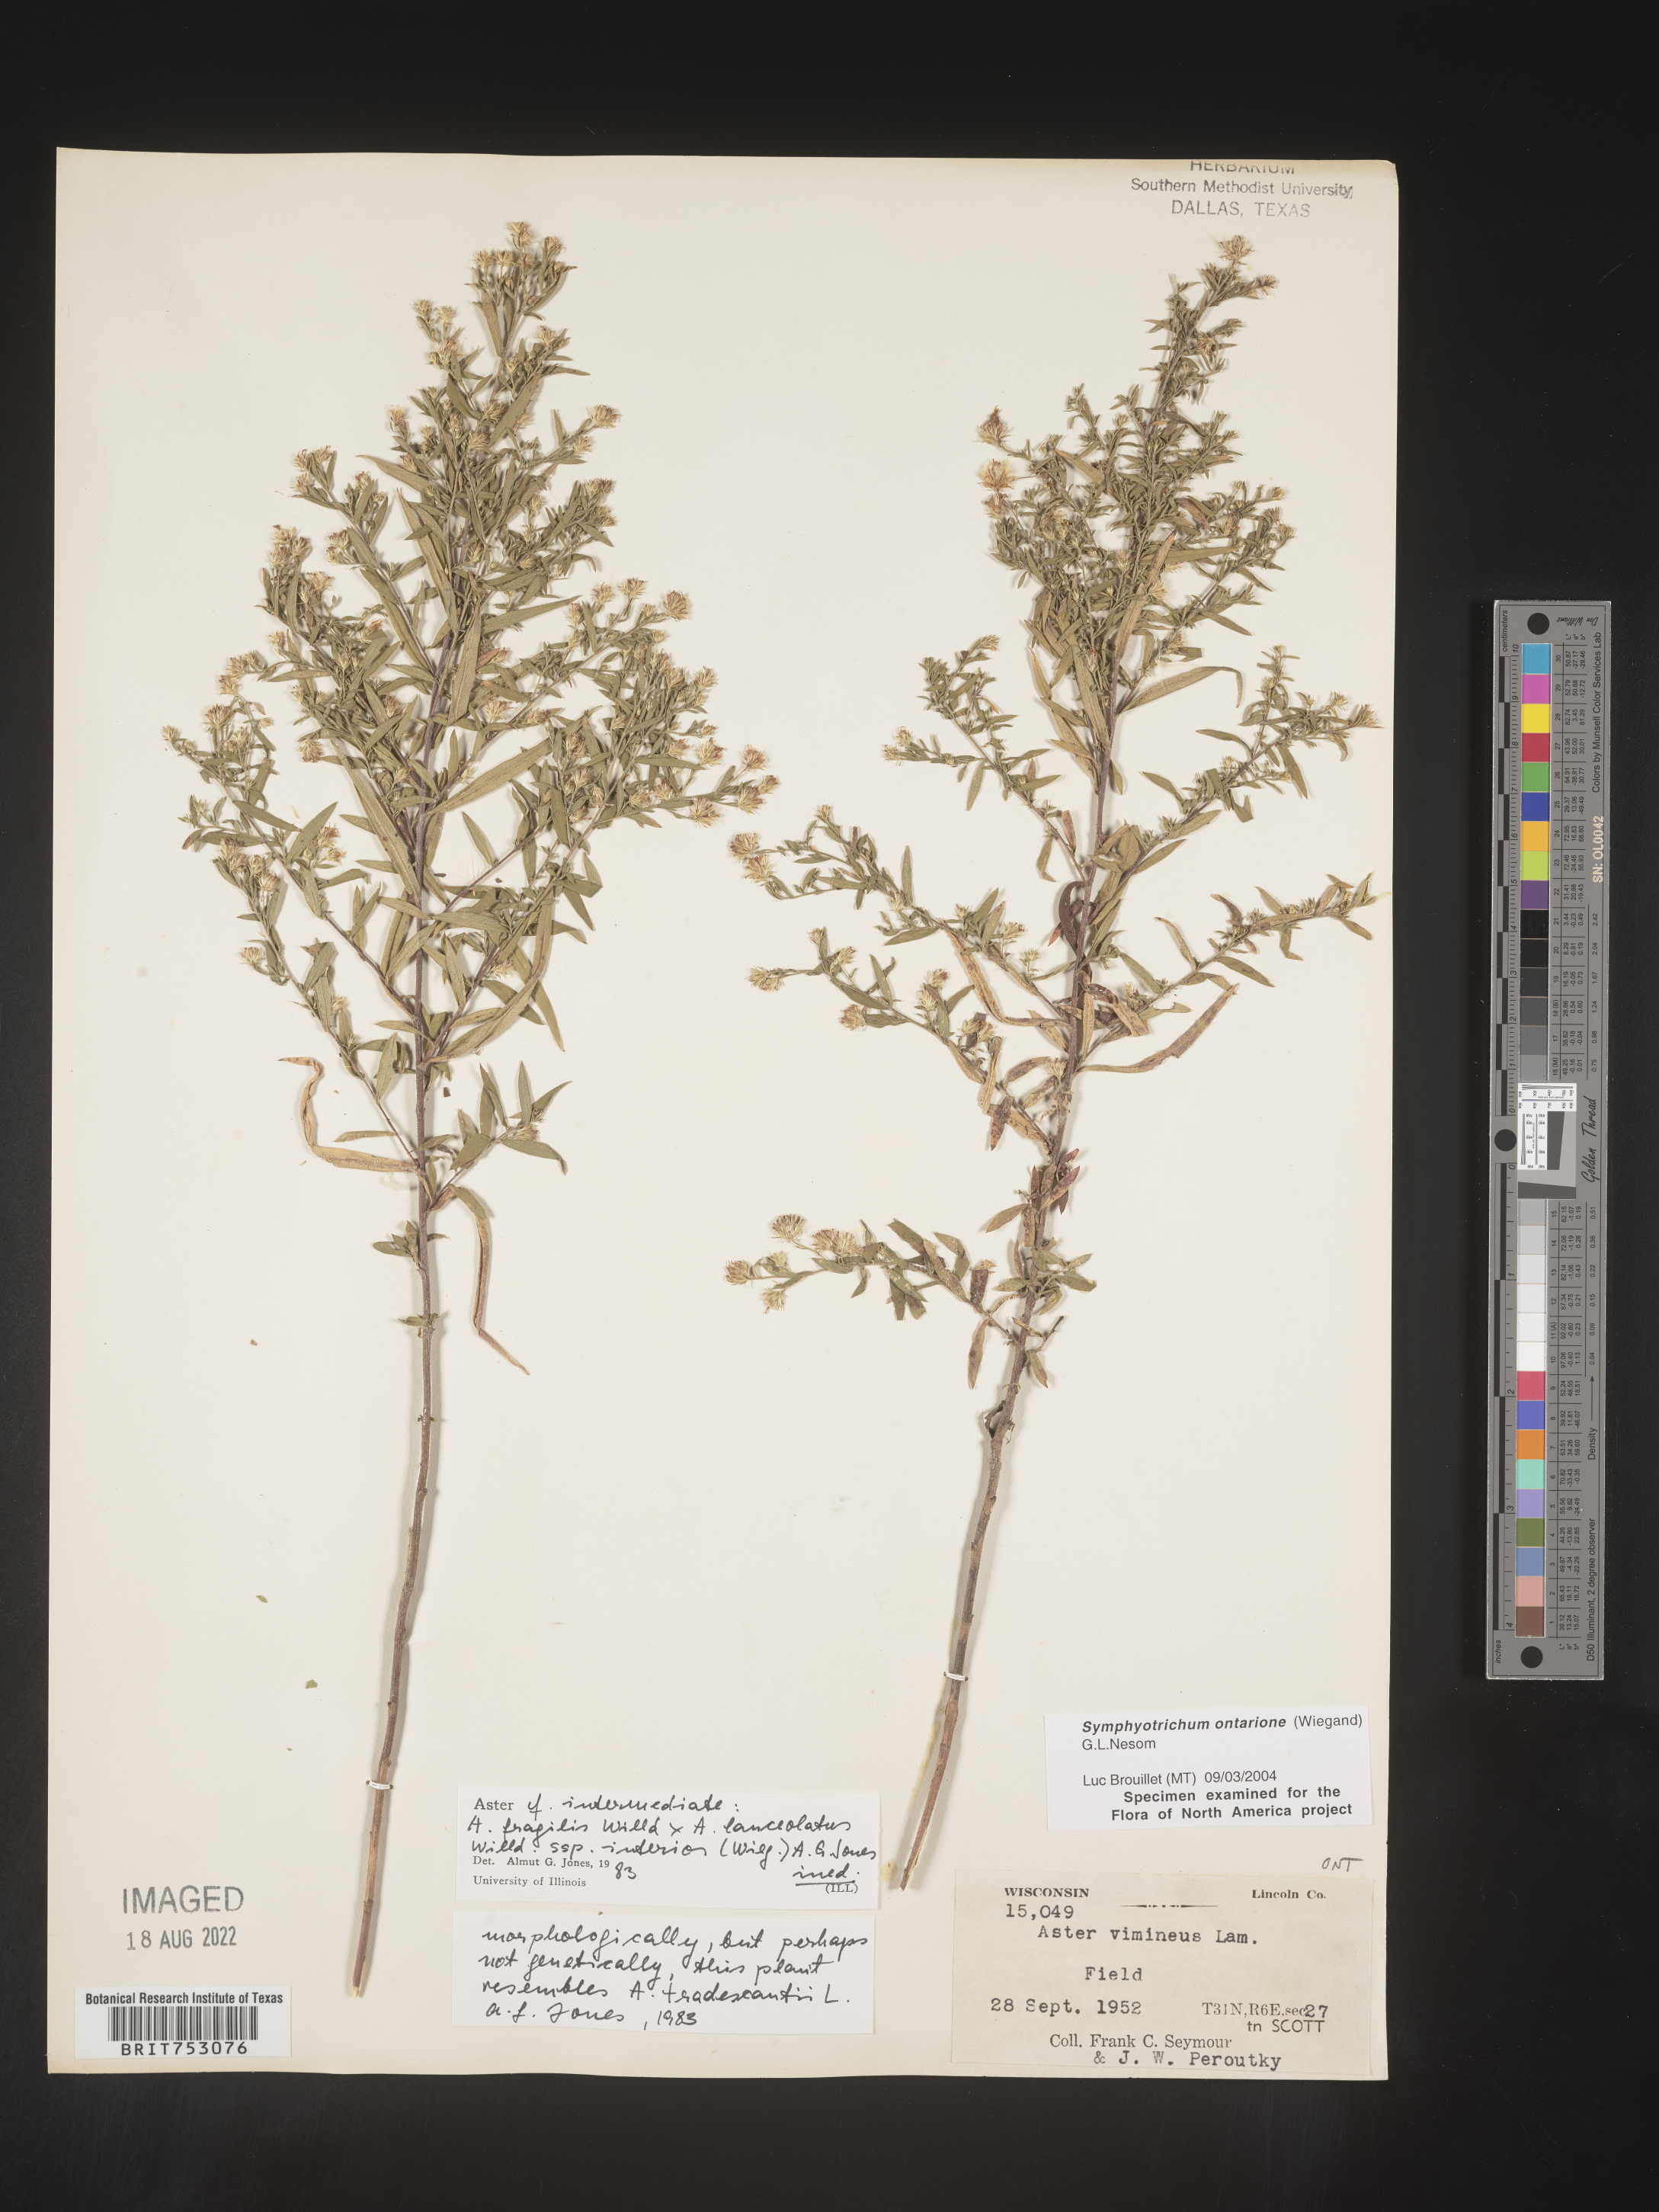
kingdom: Plantae
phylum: Tracheophyta
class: Magnoliopsida
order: Asterales
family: Asteraceae
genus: Symphyotrichum
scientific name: Symphyotrichum ontarionis
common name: Bottomland aster
